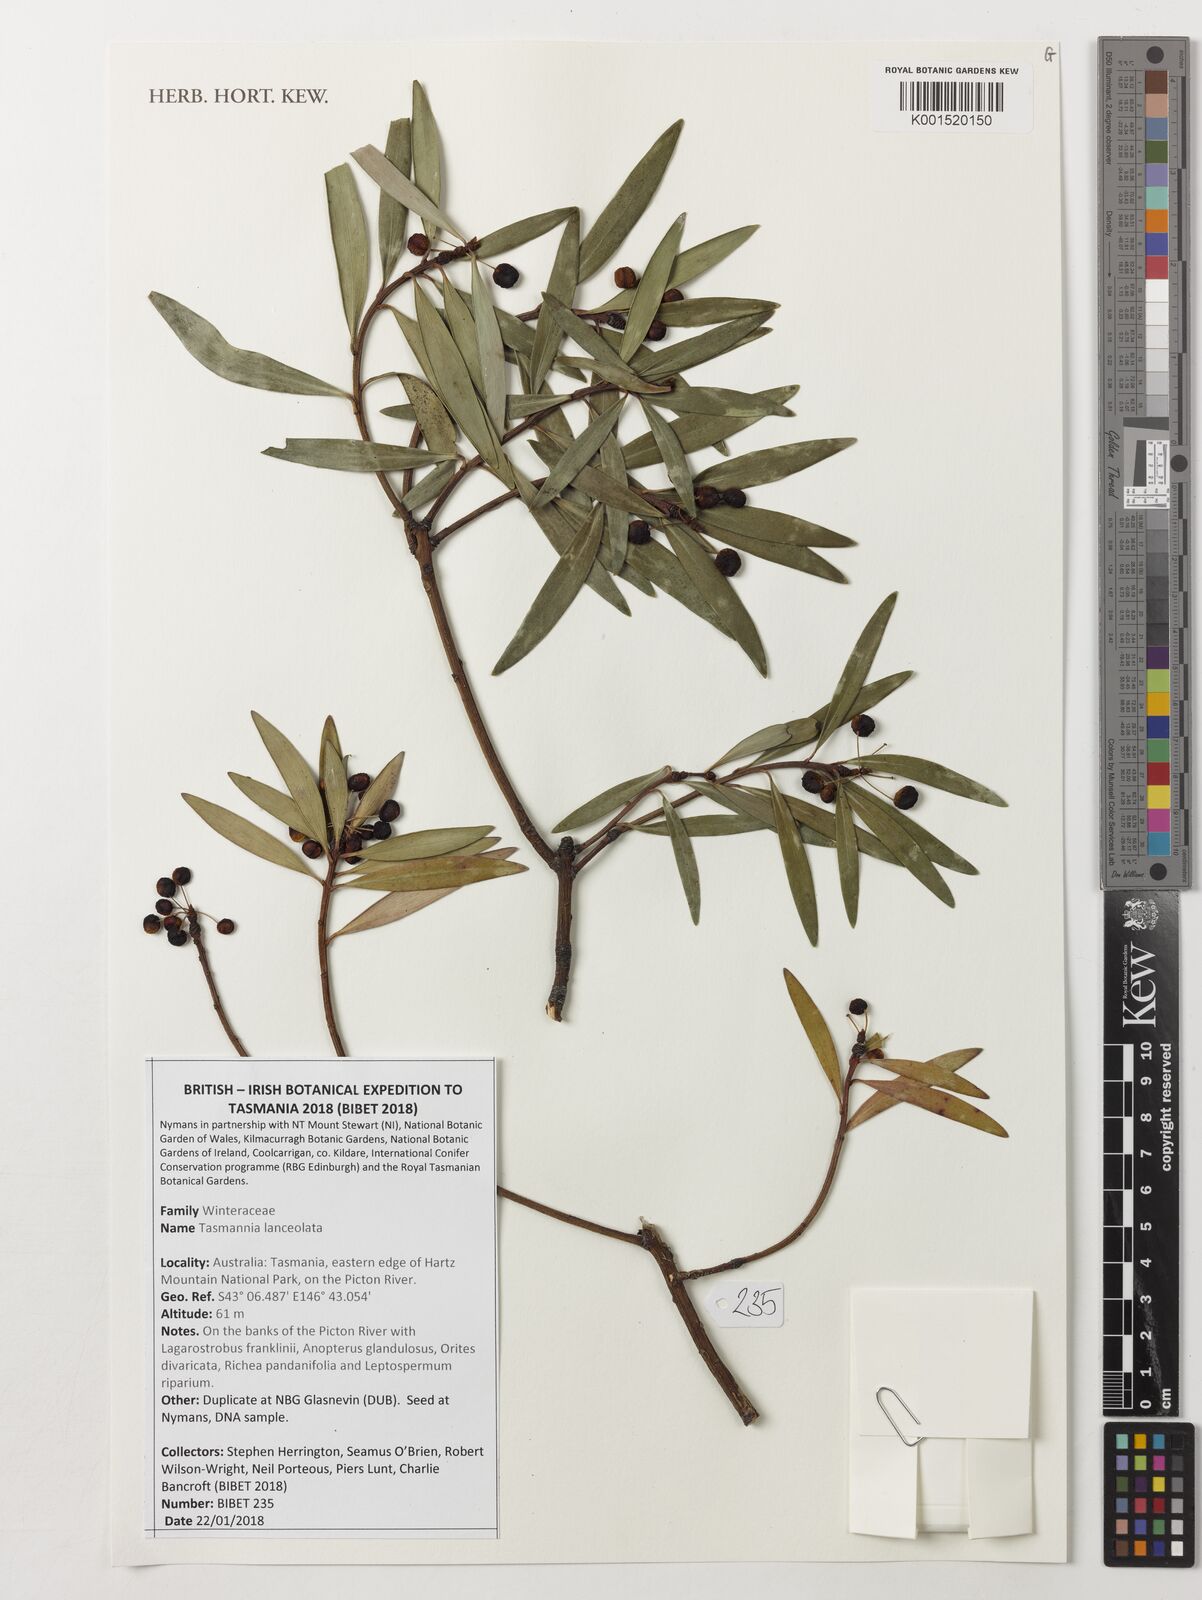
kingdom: Plantae
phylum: Tracheophyta
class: Magnoliopsida
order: Canellales
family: Winteraceae
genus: Drimys
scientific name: Drimys aromatica
